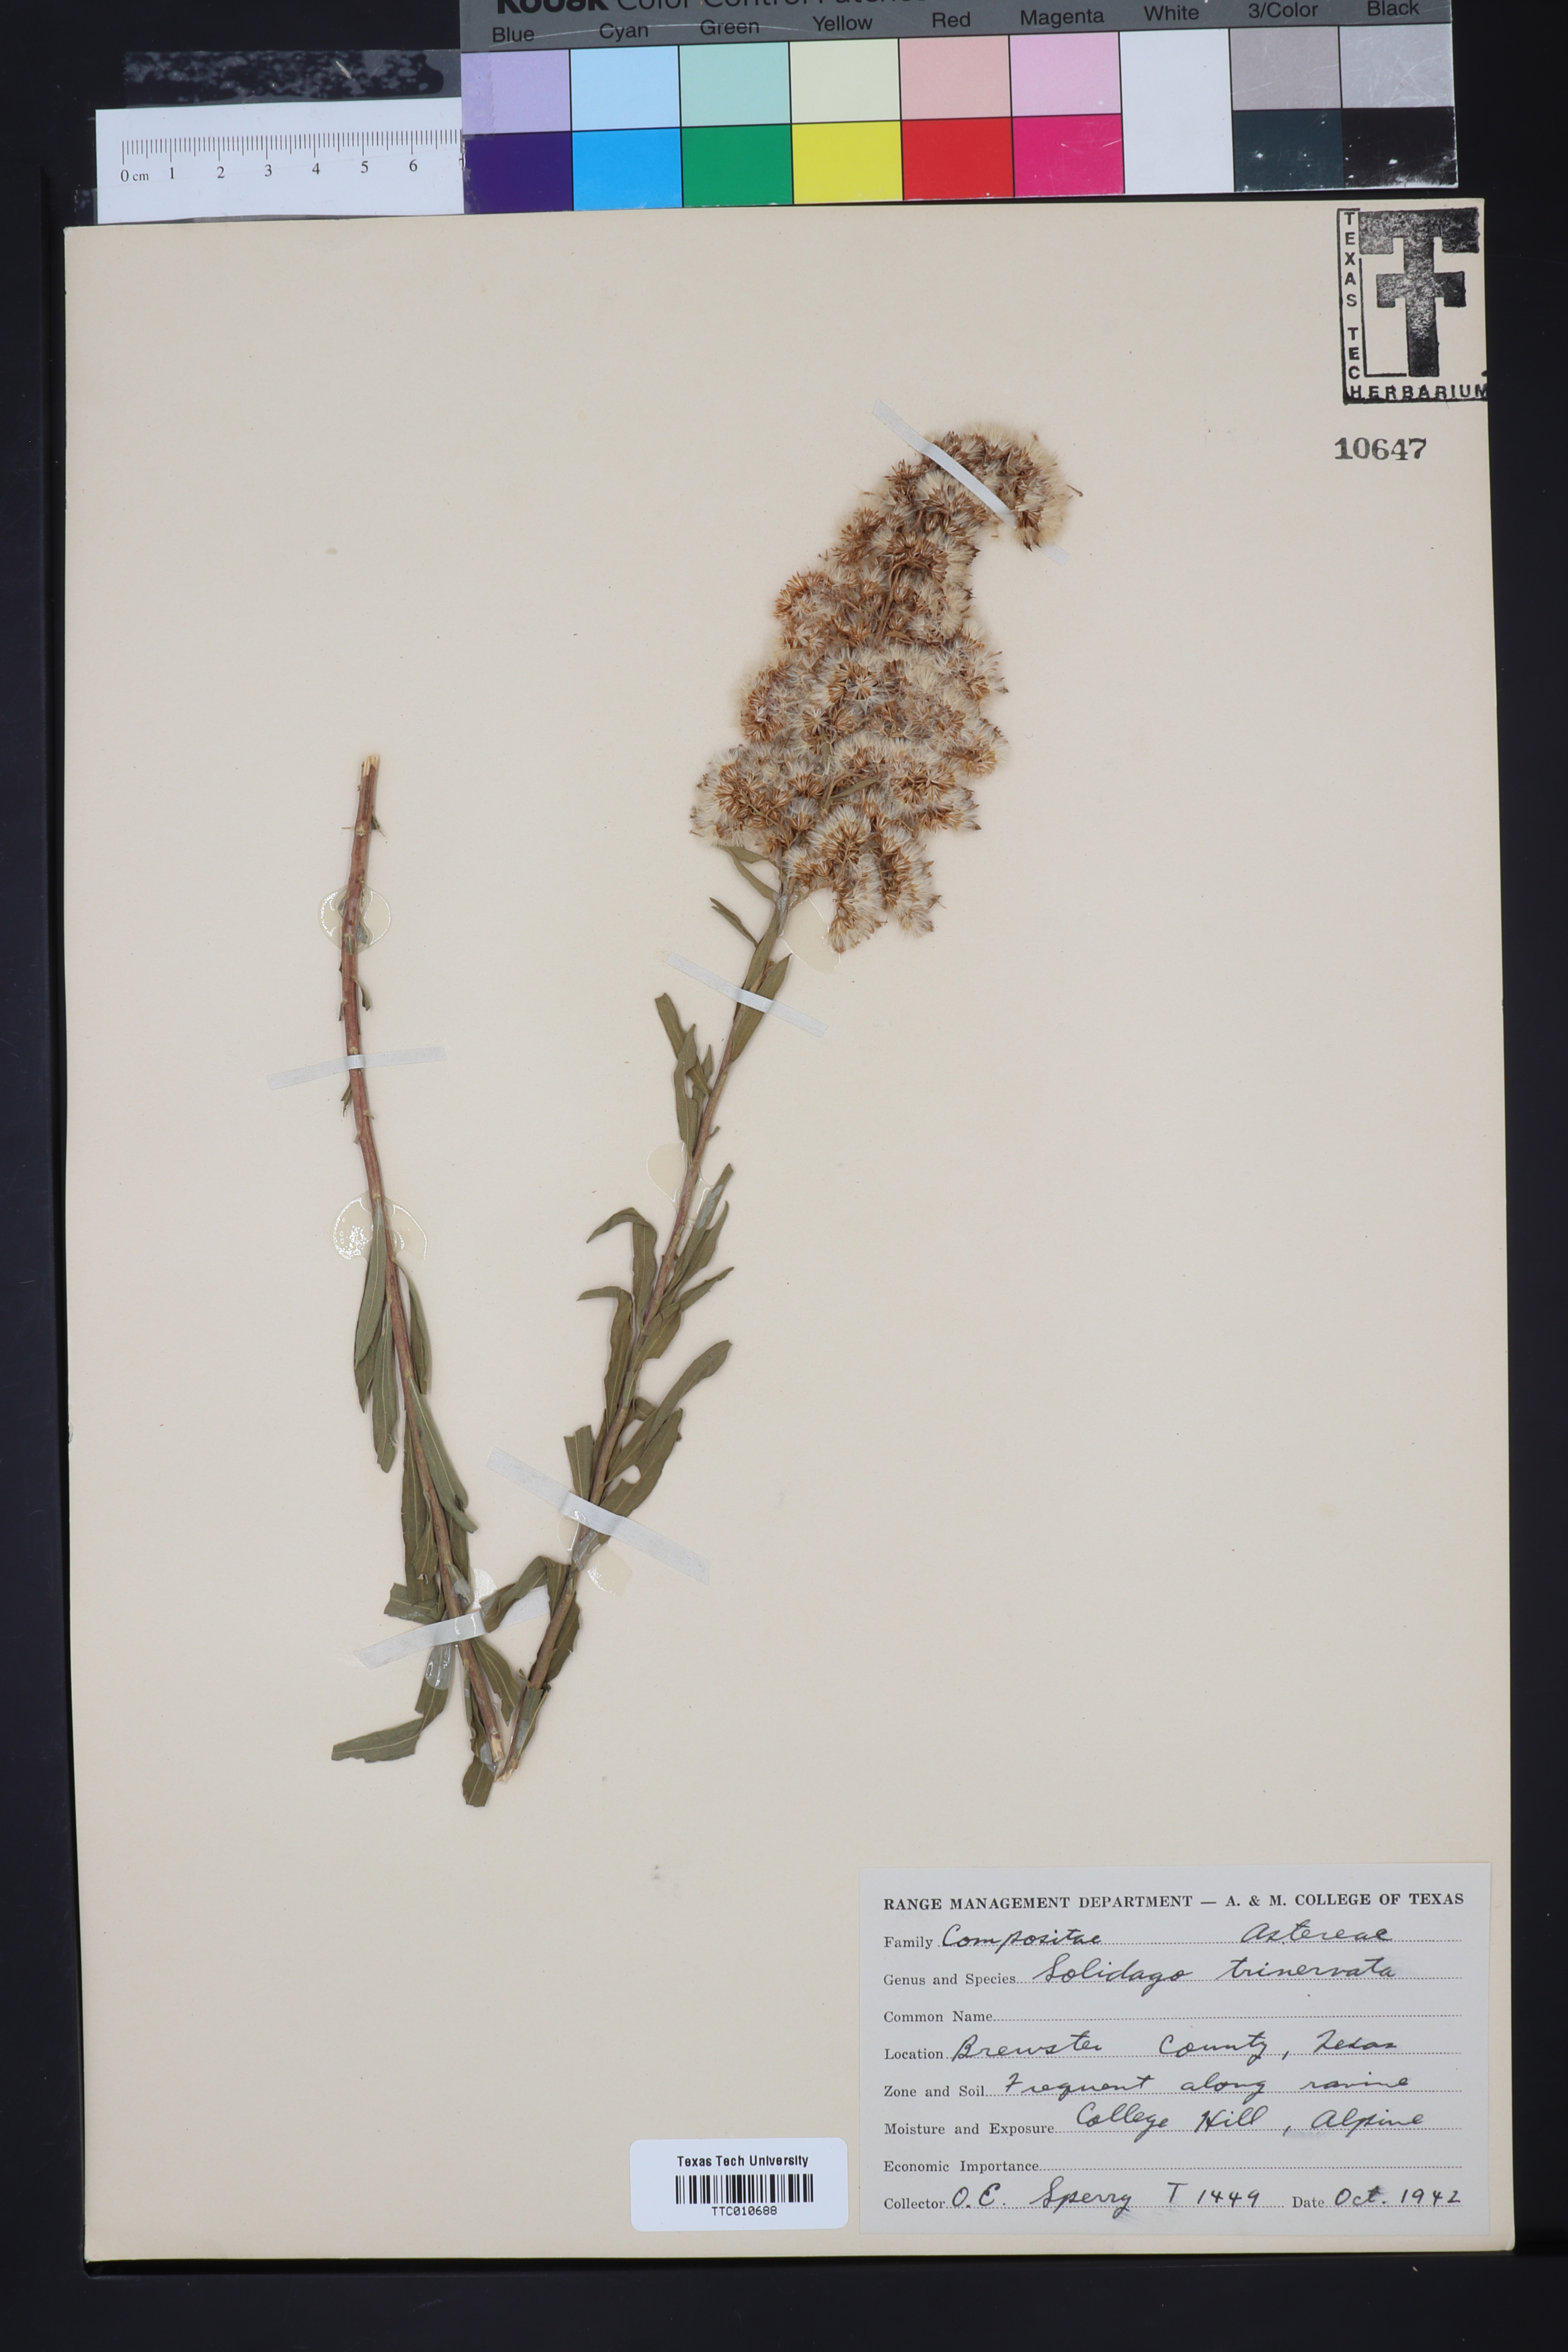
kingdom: Plantae
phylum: Tracheophyta
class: Magnoliopsida
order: Asterales
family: Asteraceae
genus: Solidago
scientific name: Solidago garrettii
